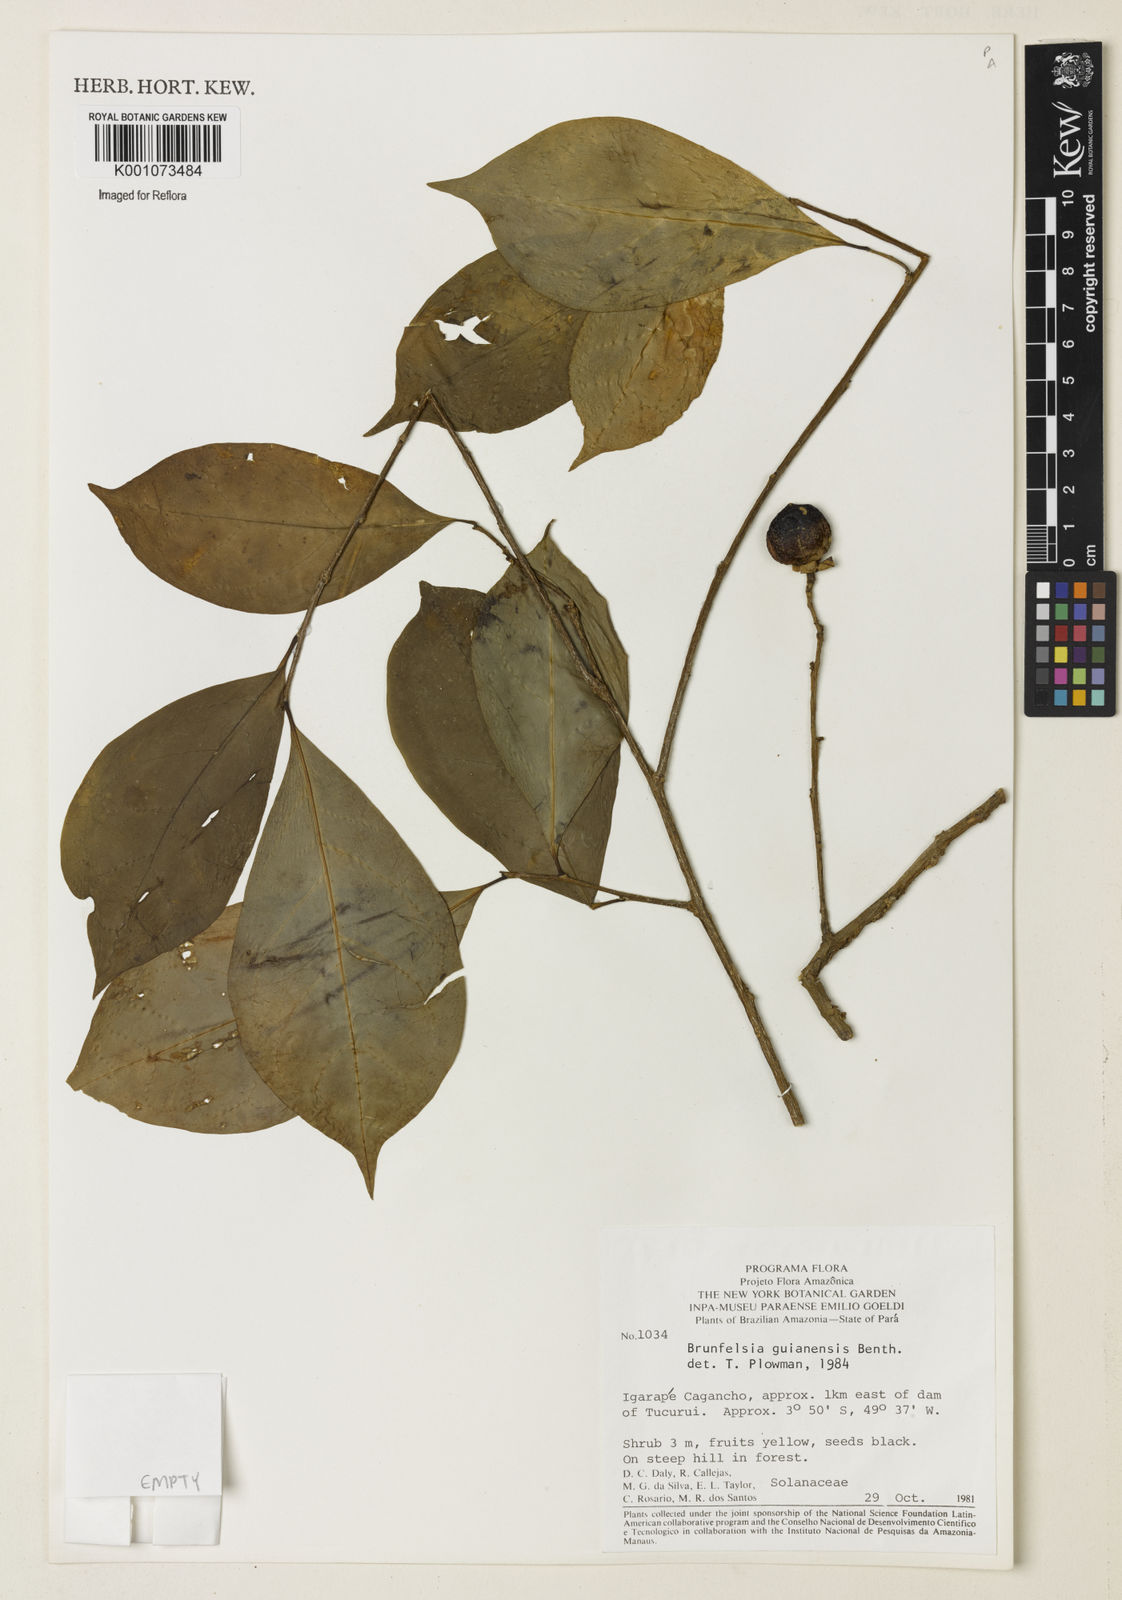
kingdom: Plantae
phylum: Tracheophyta
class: Magnoliopsida
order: Solanales
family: Solanaceae
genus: Brunfelsia
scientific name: Brunfelsia guianensis
